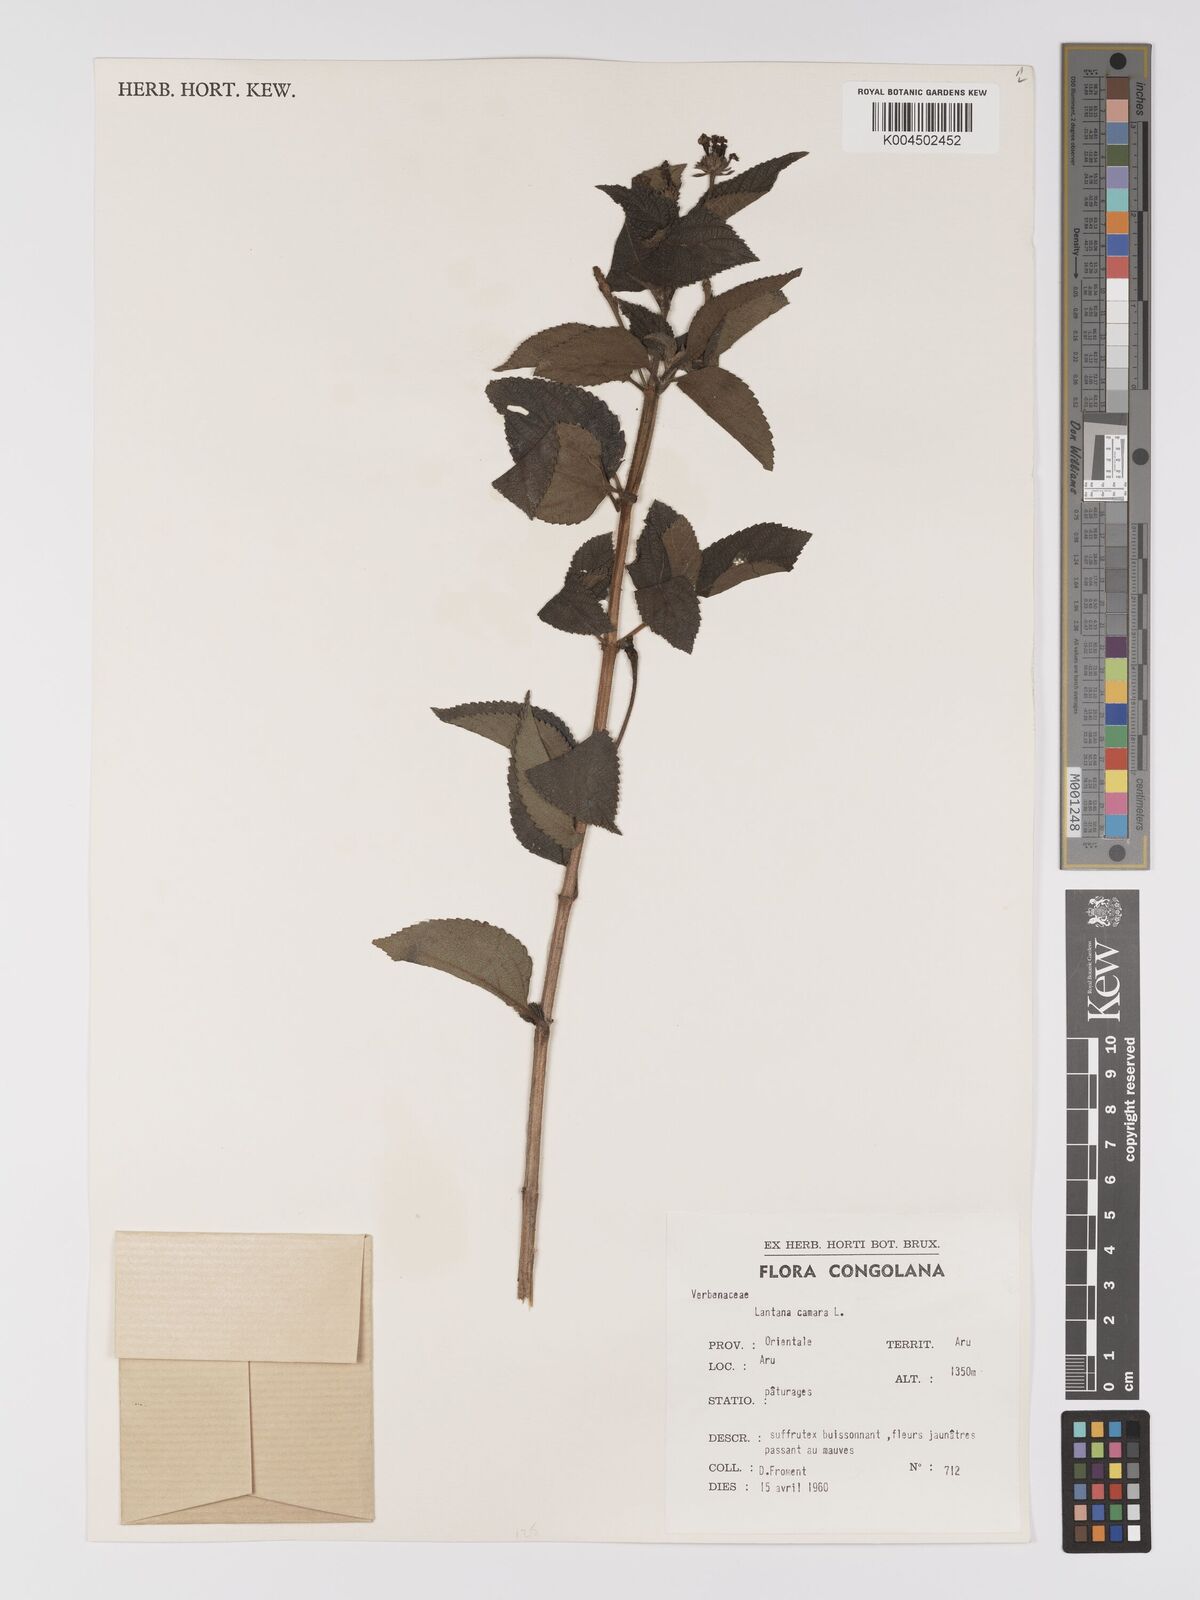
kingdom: Plantae
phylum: Tracheophyta
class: Magnoliopsida
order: Lamiales
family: Verbenaceae
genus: Lantana
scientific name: Lantana camara
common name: Lantana
